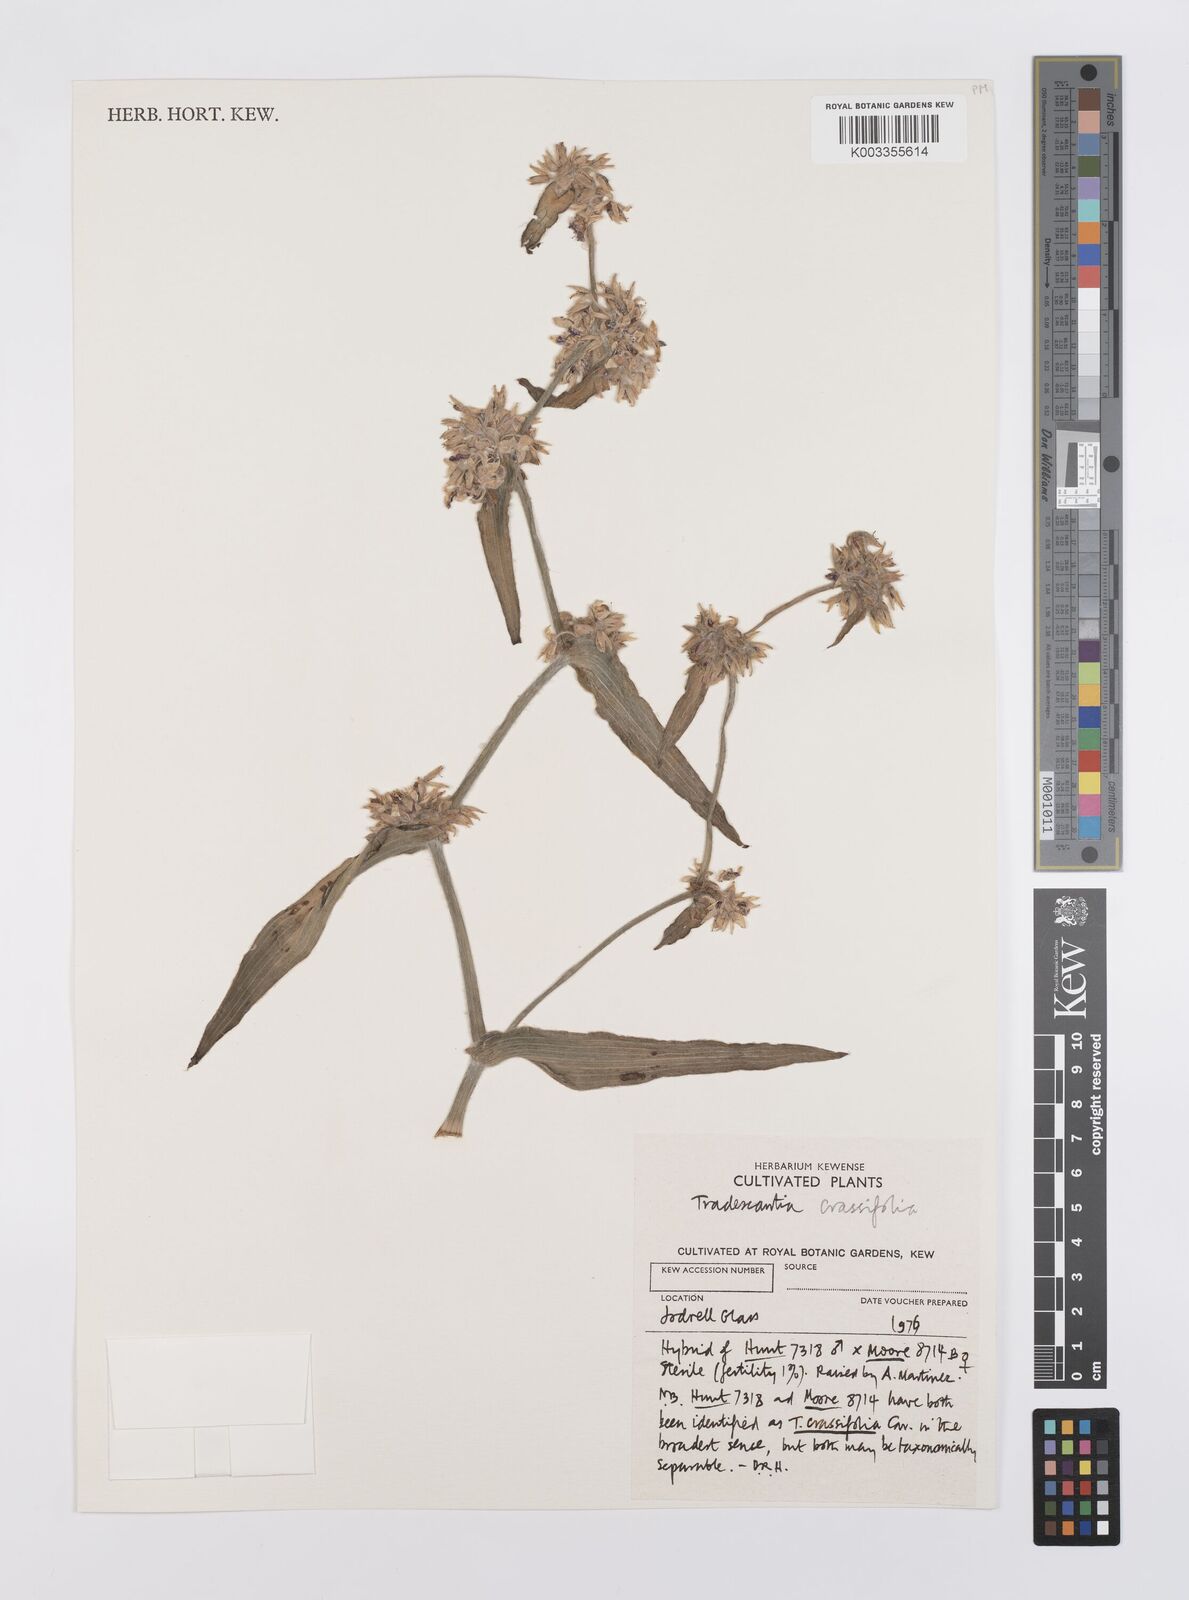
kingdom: Plantae
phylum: Tracheophyta
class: Liliopsida
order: Commelinales
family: Commelinaceae
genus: Tradescantia
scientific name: Tradescantia crassifolia
